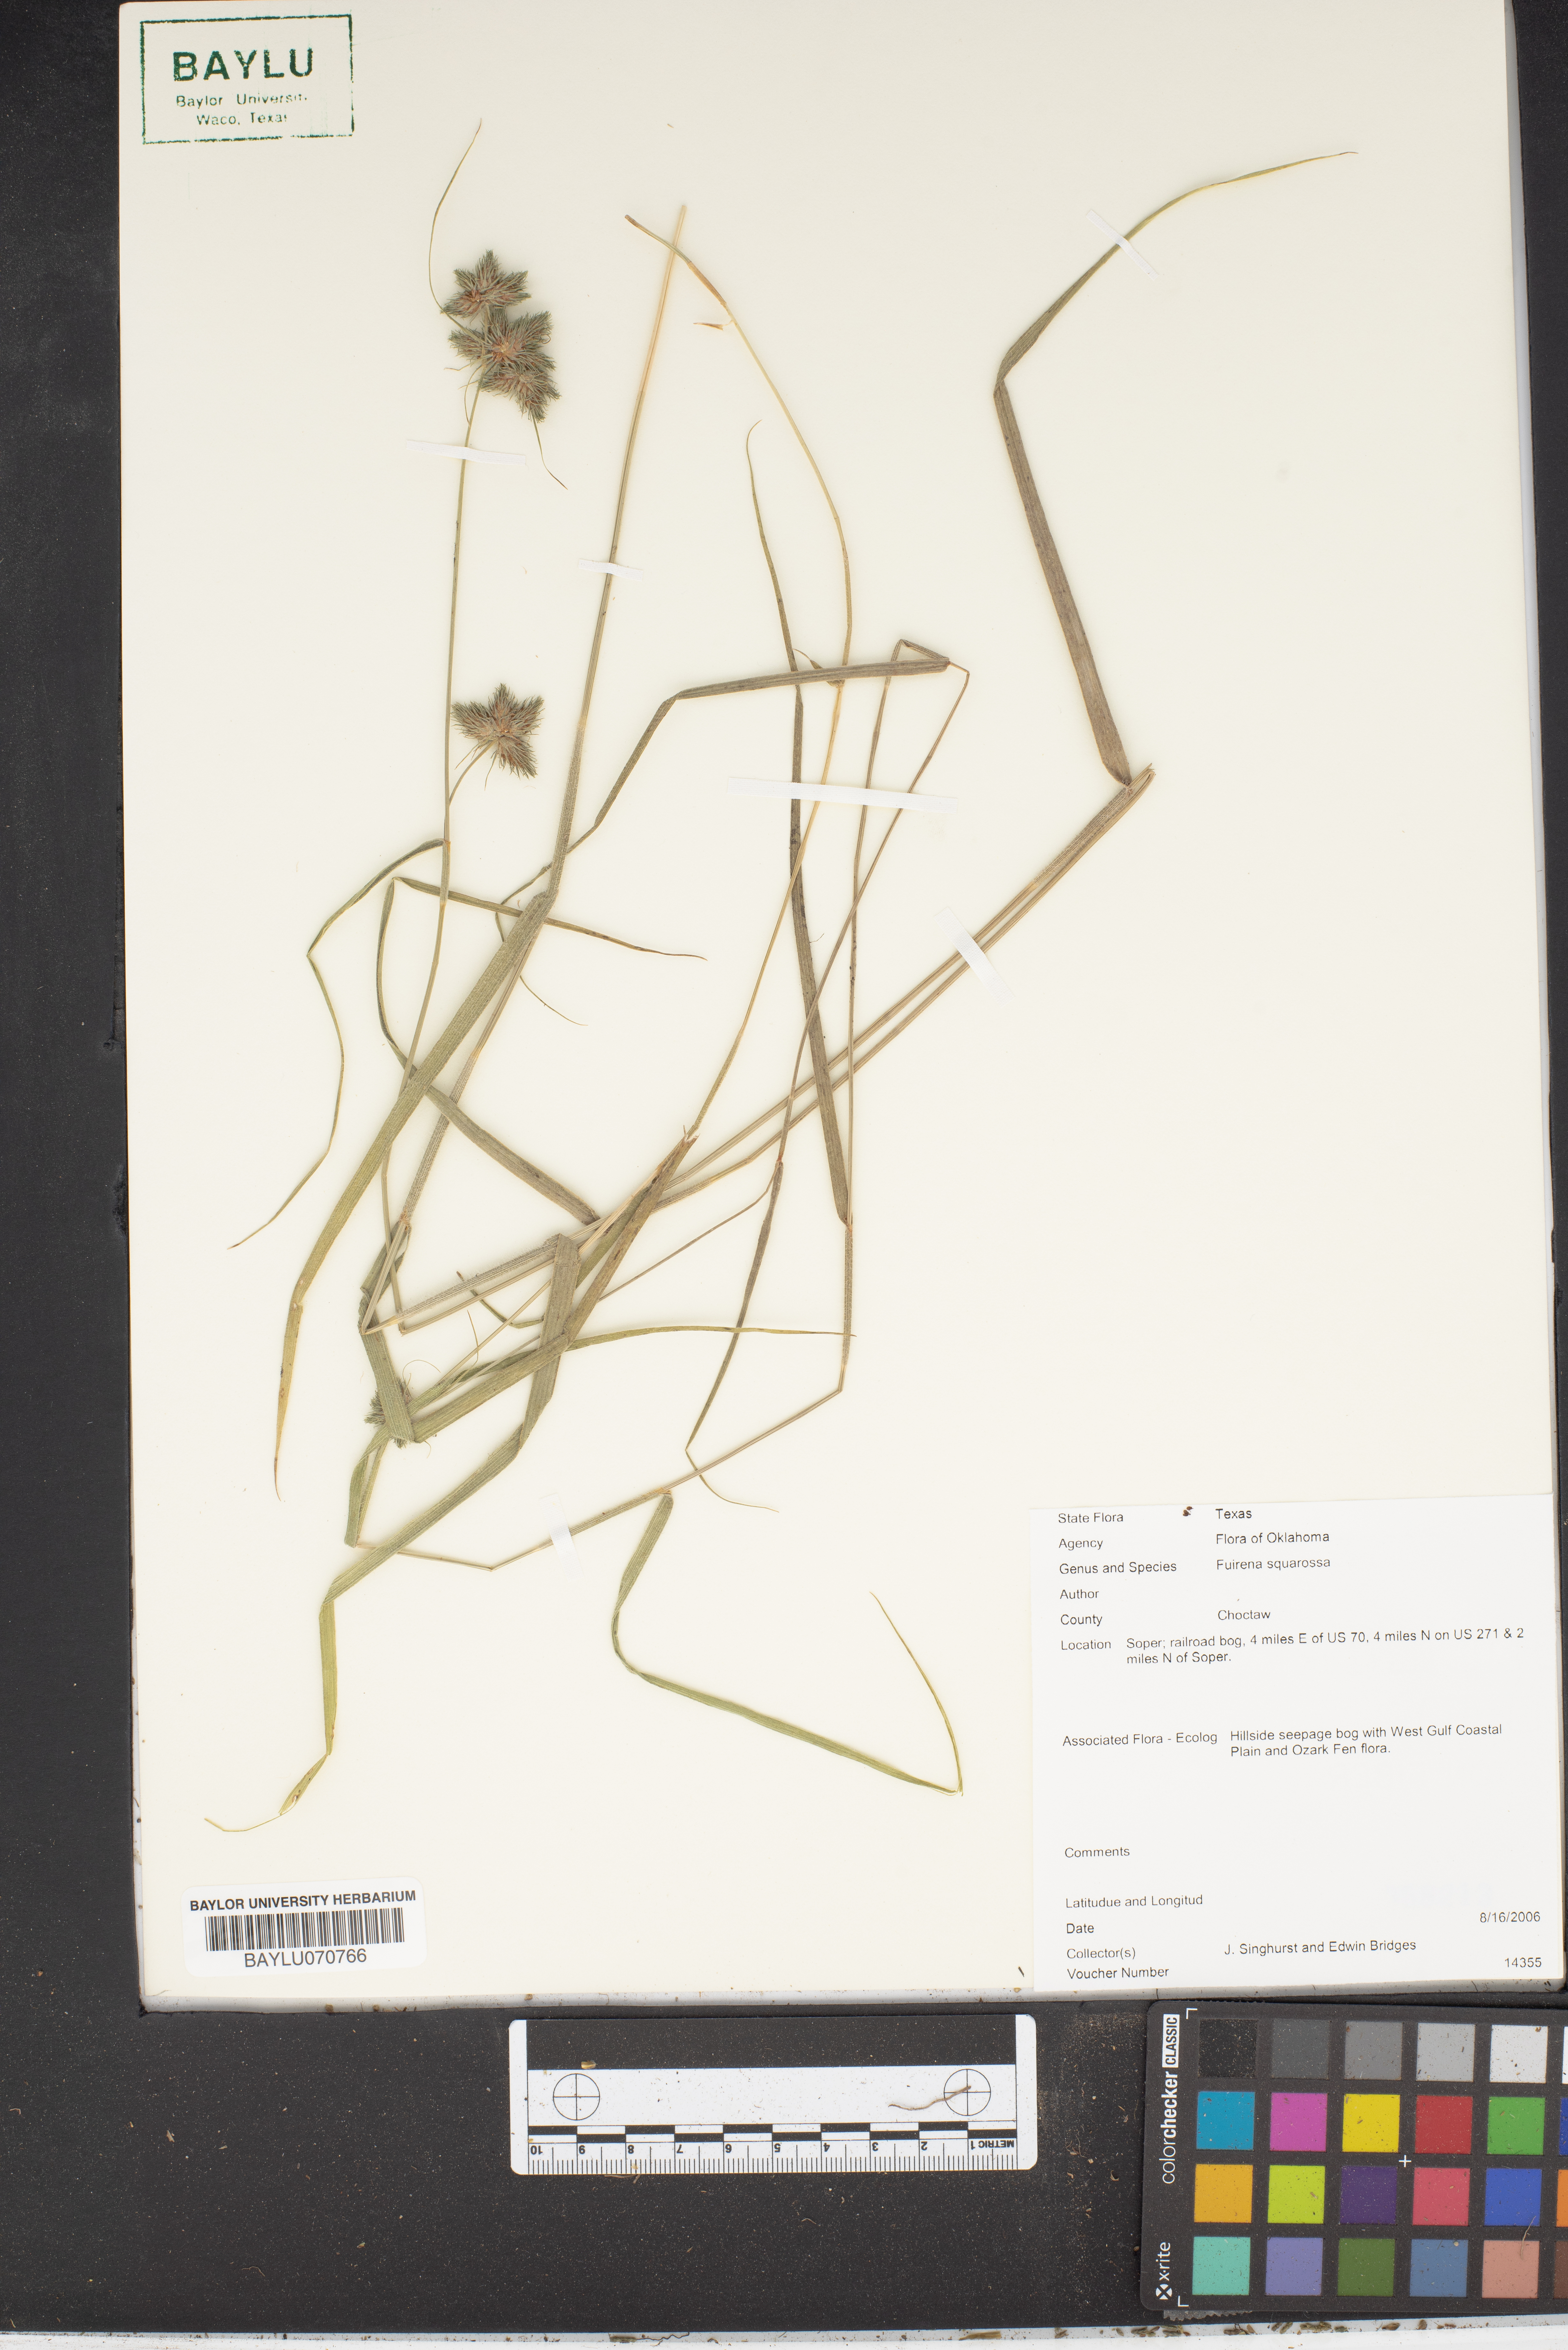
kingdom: Plantae
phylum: Tracheophyta
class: Liliopsida
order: Poales
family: Cyperaceae
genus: Fuirena
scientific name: Fuirena squarrosa
